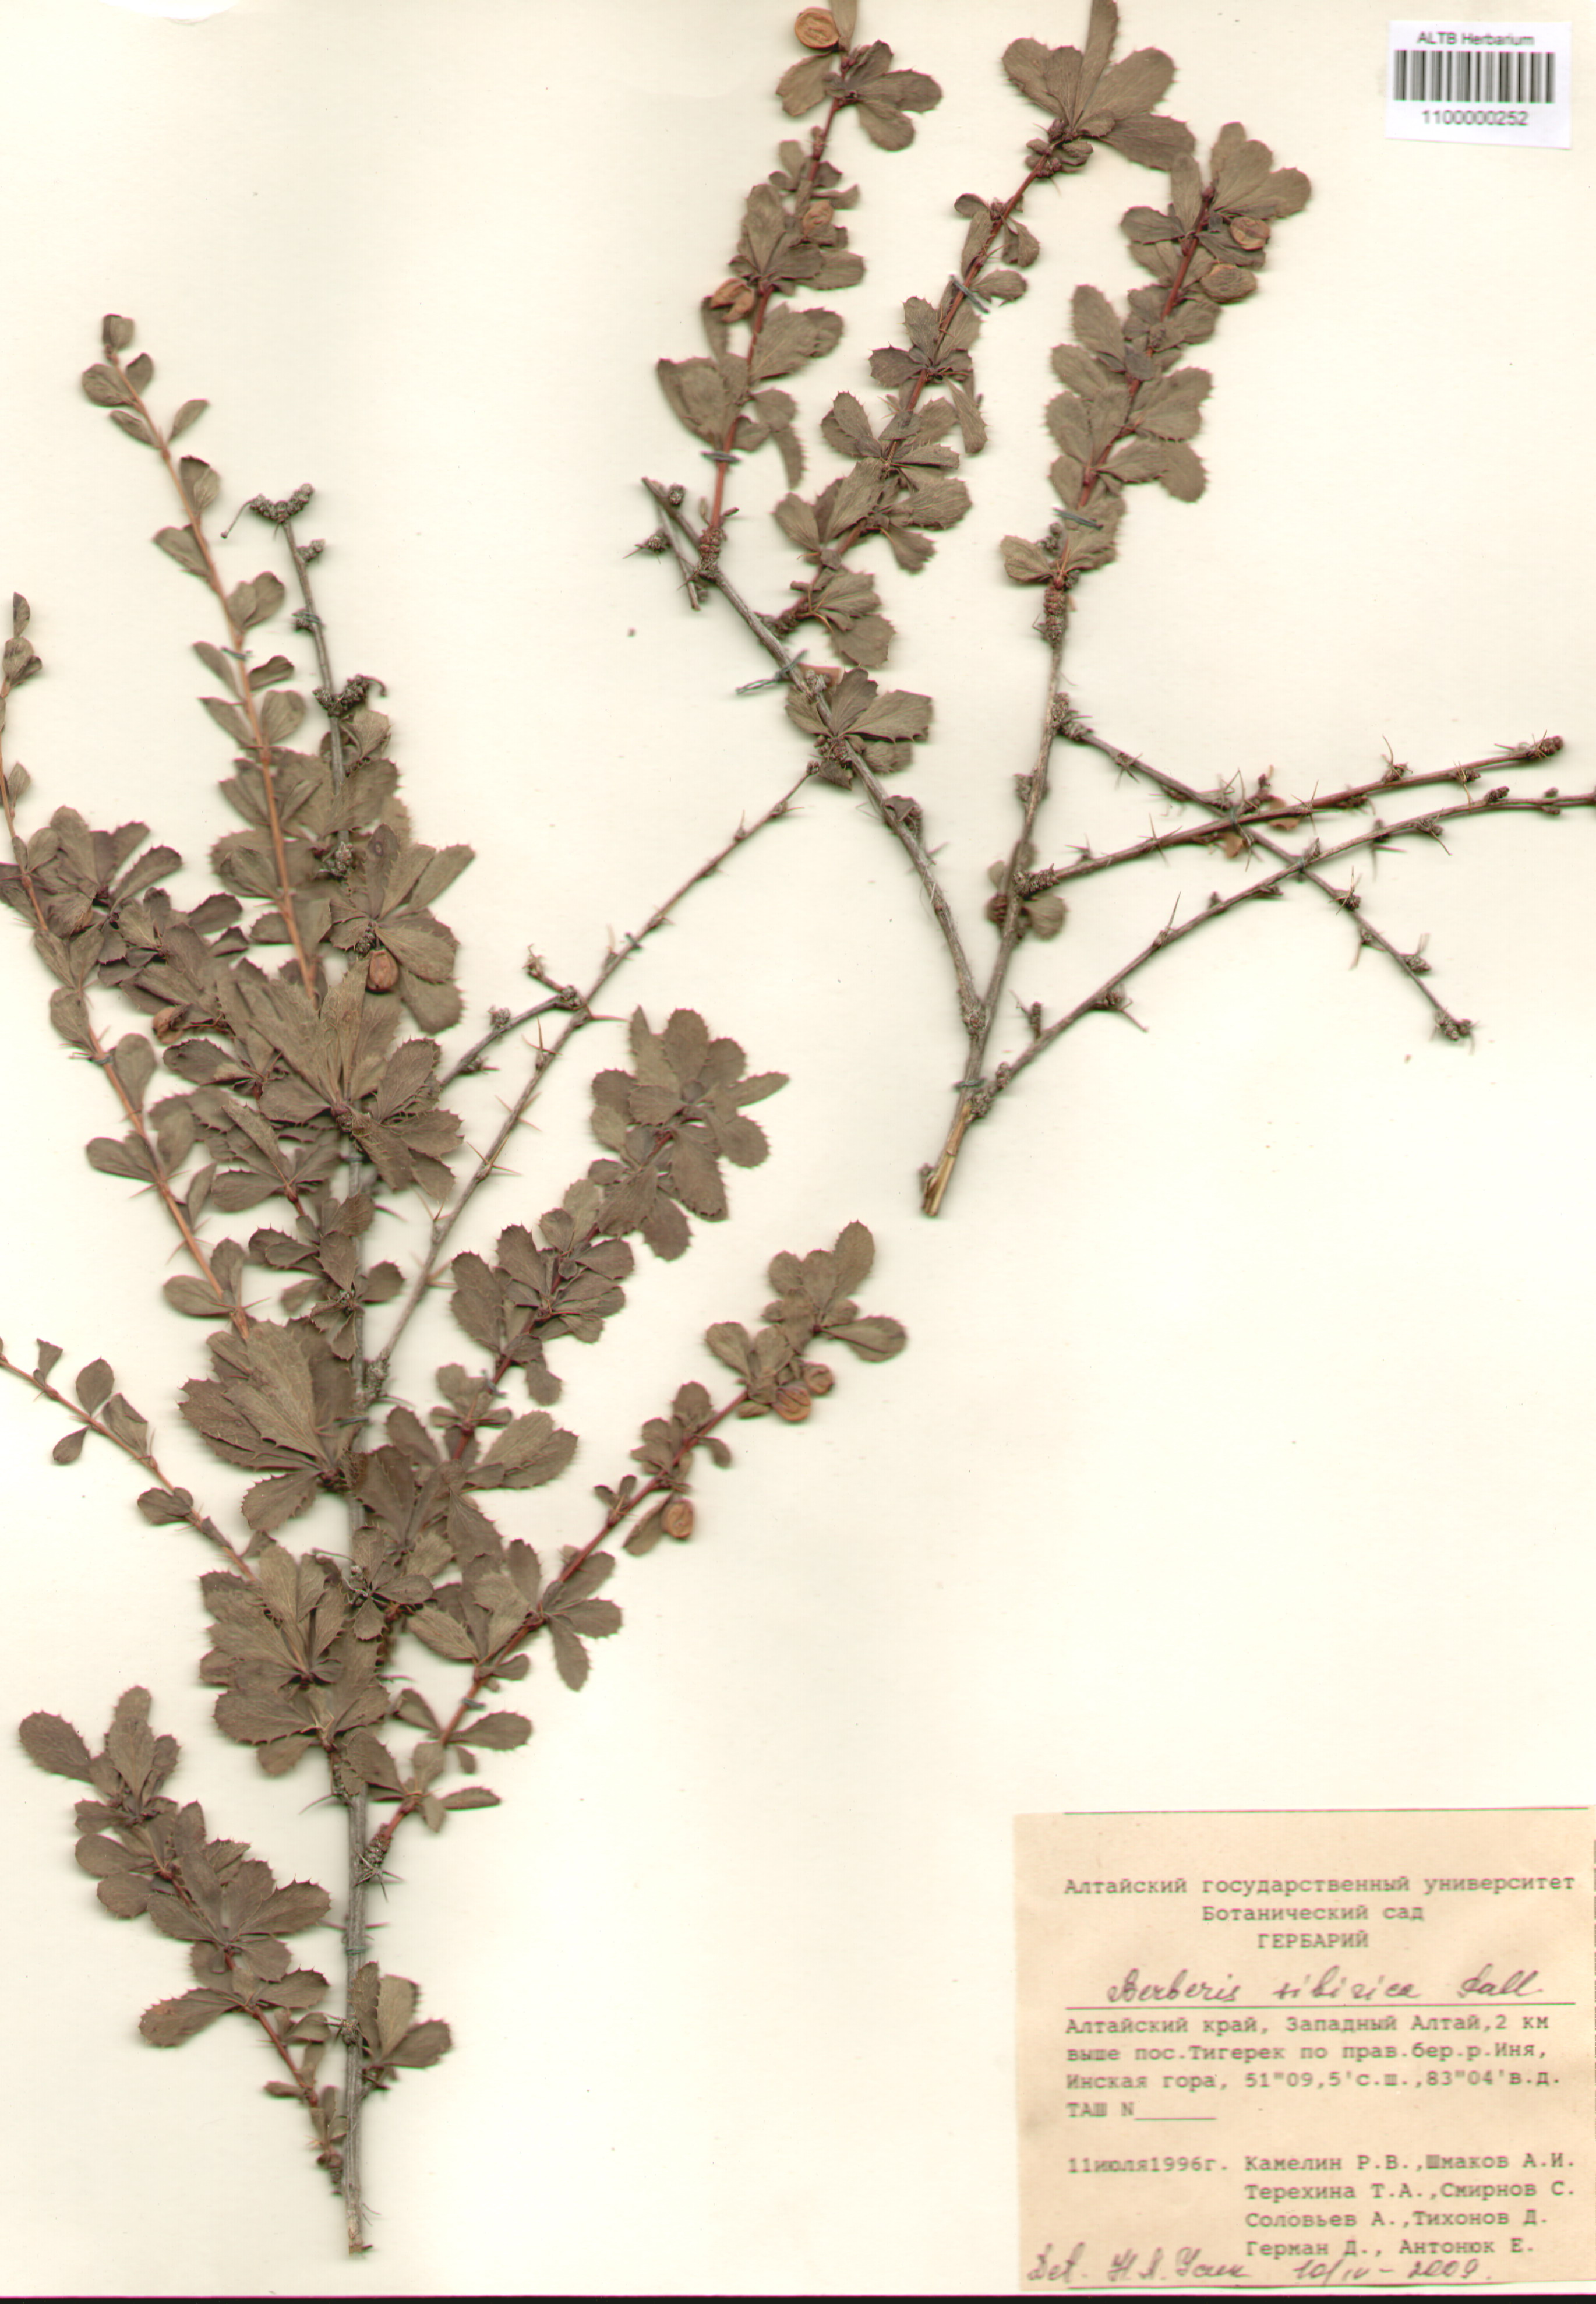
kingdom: Plantae
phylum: Tracheophyta
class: Magnoliopsida
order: Ranunculales
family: Berberidaceae
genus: Berberis
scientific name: Berberis sibirica
